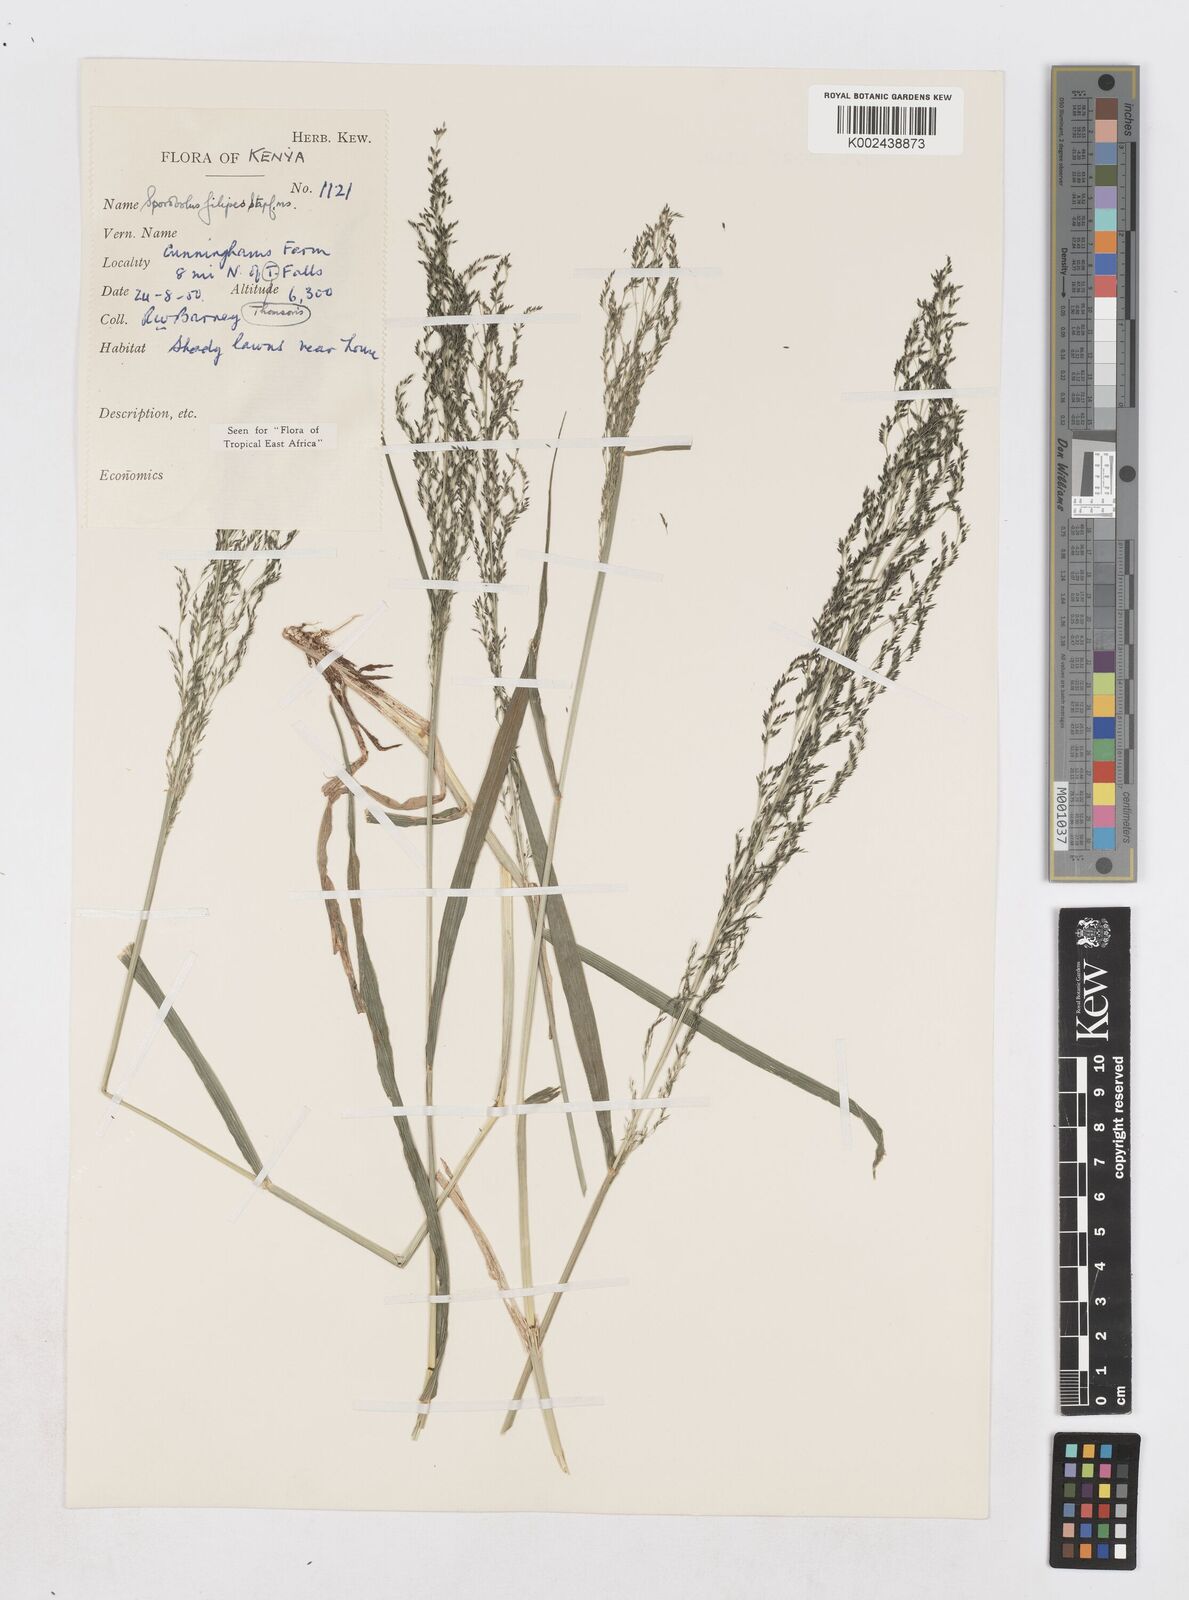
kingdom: Plantae
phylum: Tracheophyta
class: Liliopsida
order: Poales
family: Poaceae
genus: Sporobolus
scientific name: Sporobolus agrostoides
